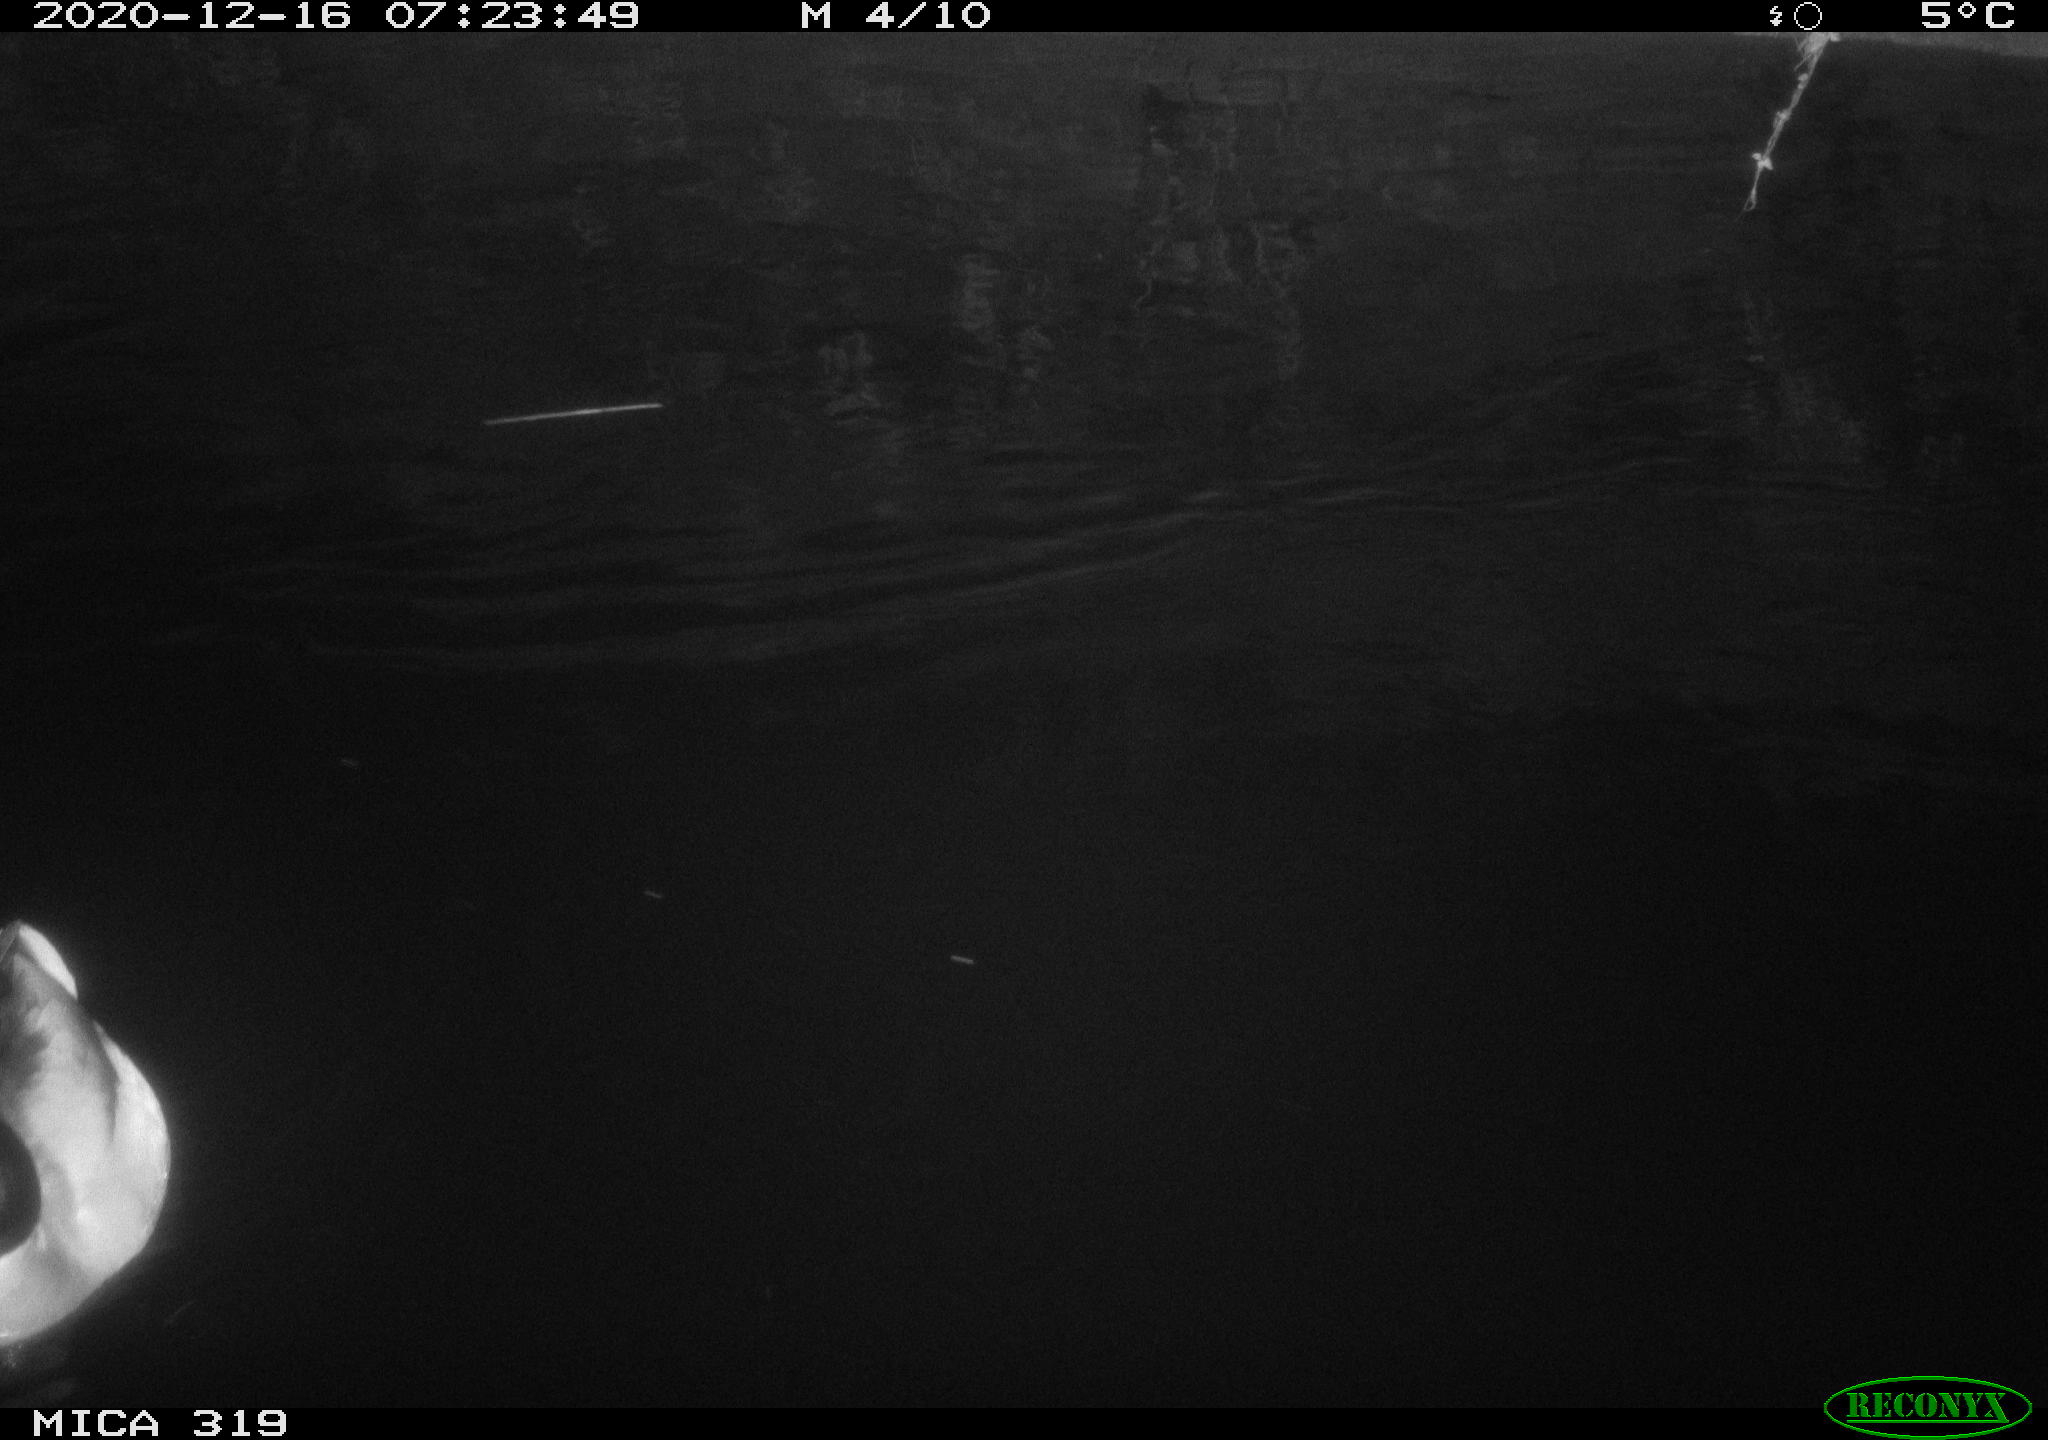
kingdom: Animalia
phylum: Chordata
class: Aves
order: Anseriformes
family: Anatidae
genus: Anas
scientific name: Anas platyrhynchos
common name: Mallard
